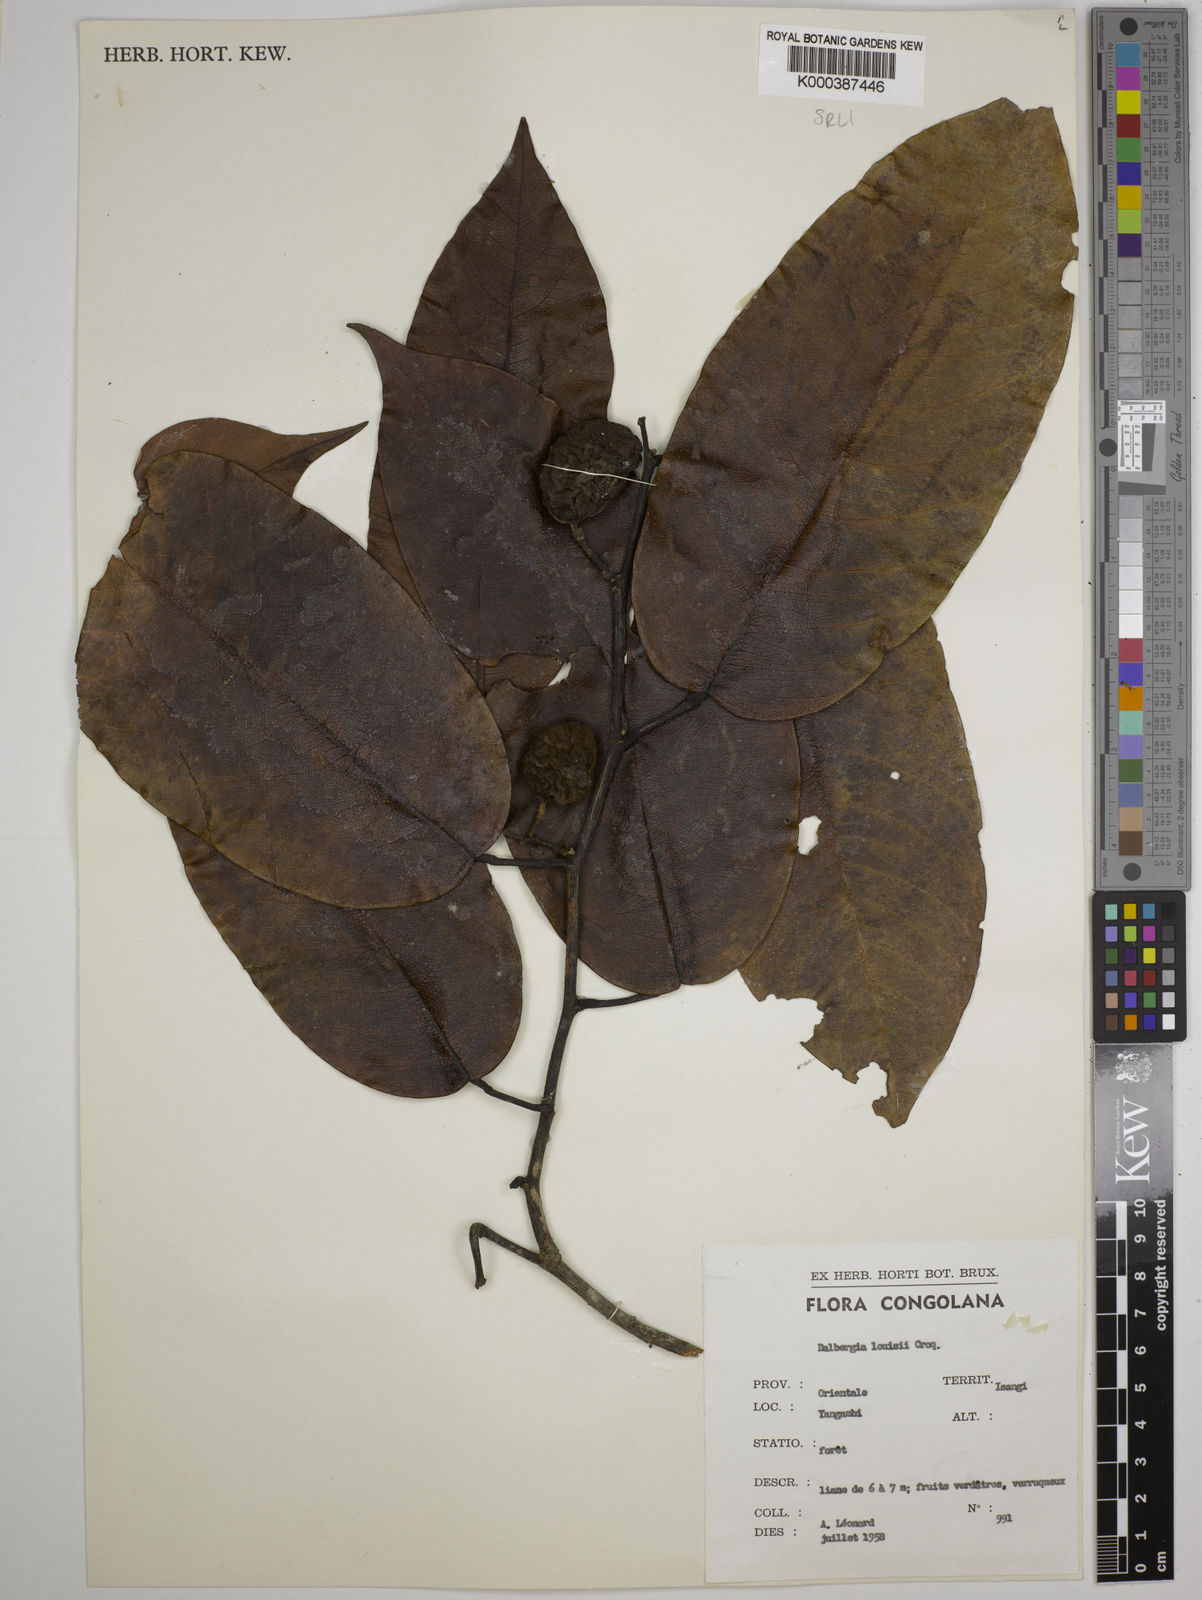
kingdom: Plantae
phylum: Tracheophyta
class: Magnoliopsida
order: Fabales
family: Fabaceae
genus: Dalbergia
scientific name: Dalbergia louisii
